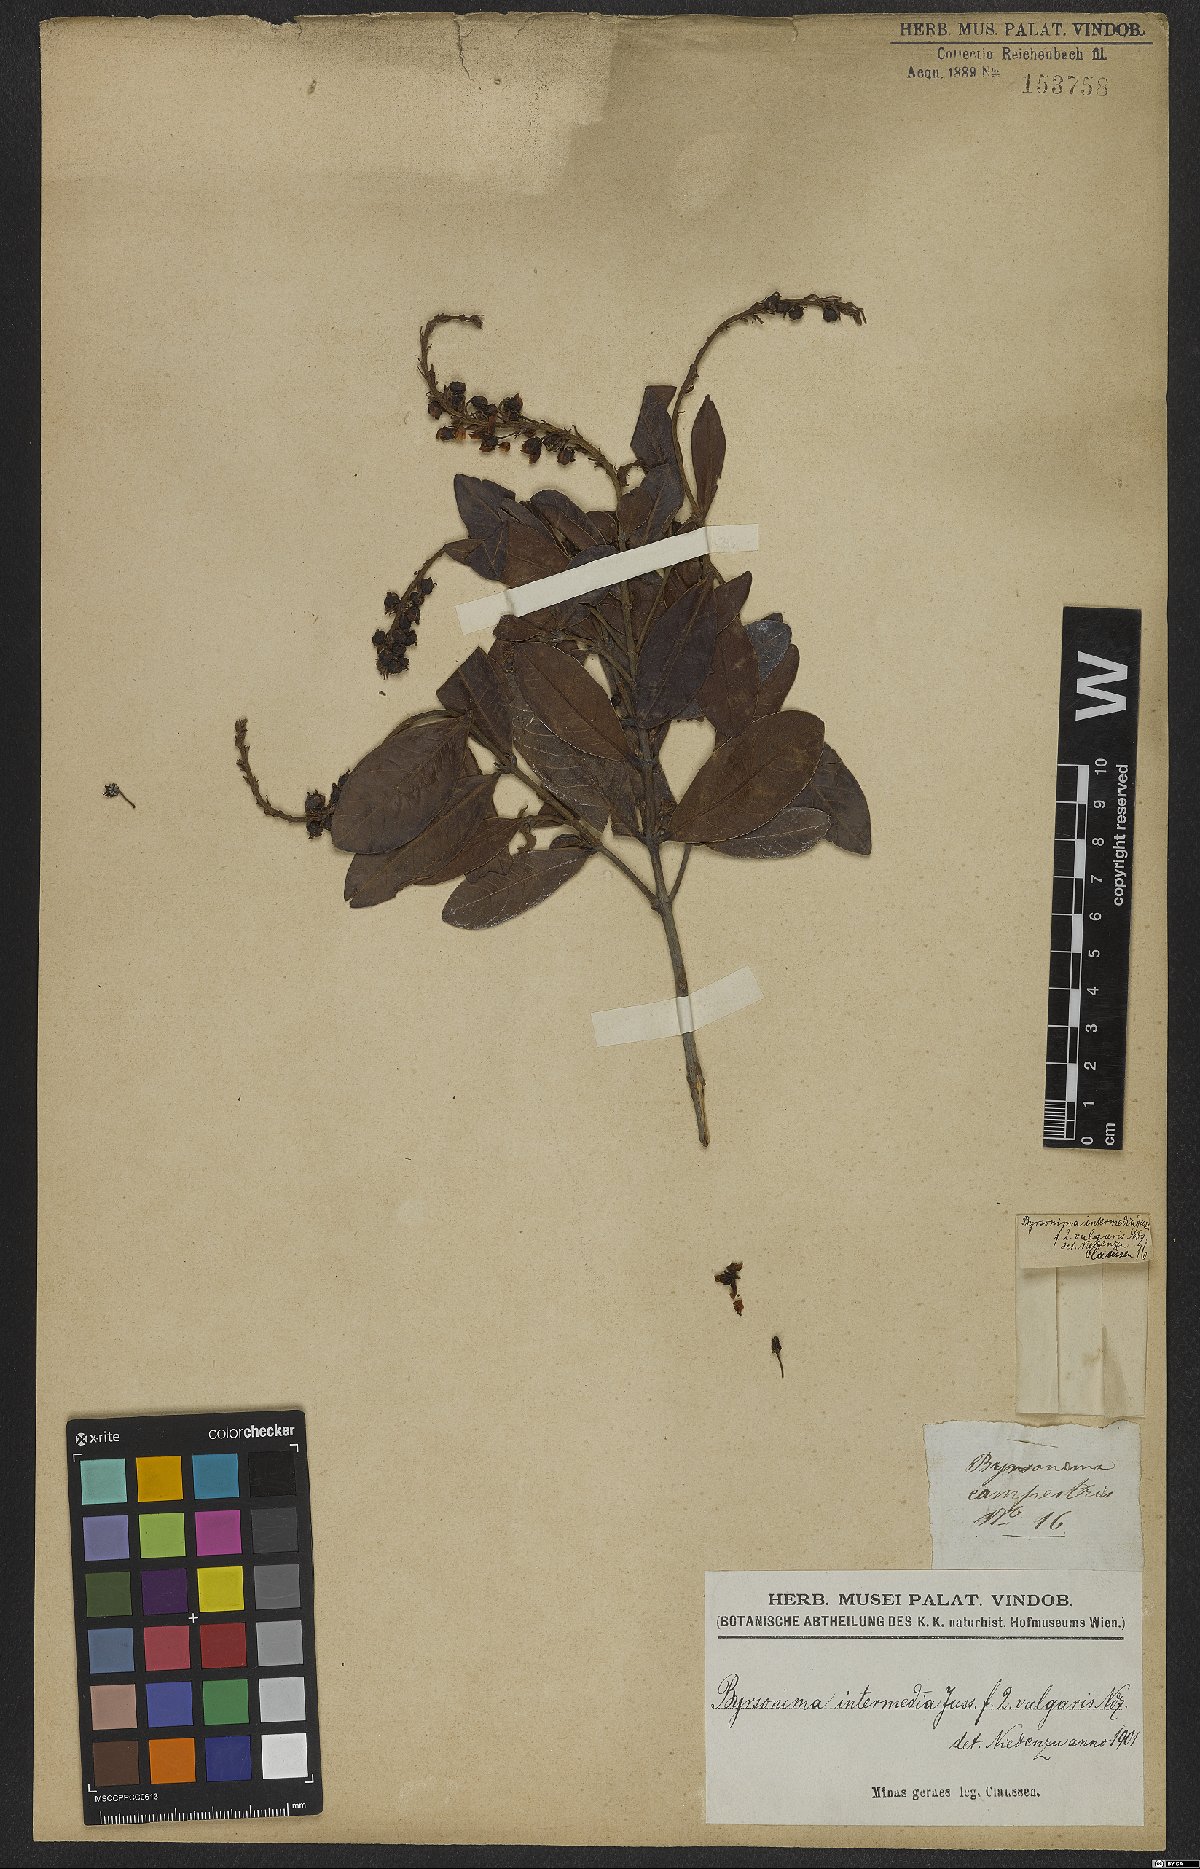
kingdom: Plantae
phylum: Tracheophyta
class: Magnoliopsida
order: Malpighiales
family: Malpighiaceae
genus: Byrsonima
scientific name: Byrsonima intermedia
